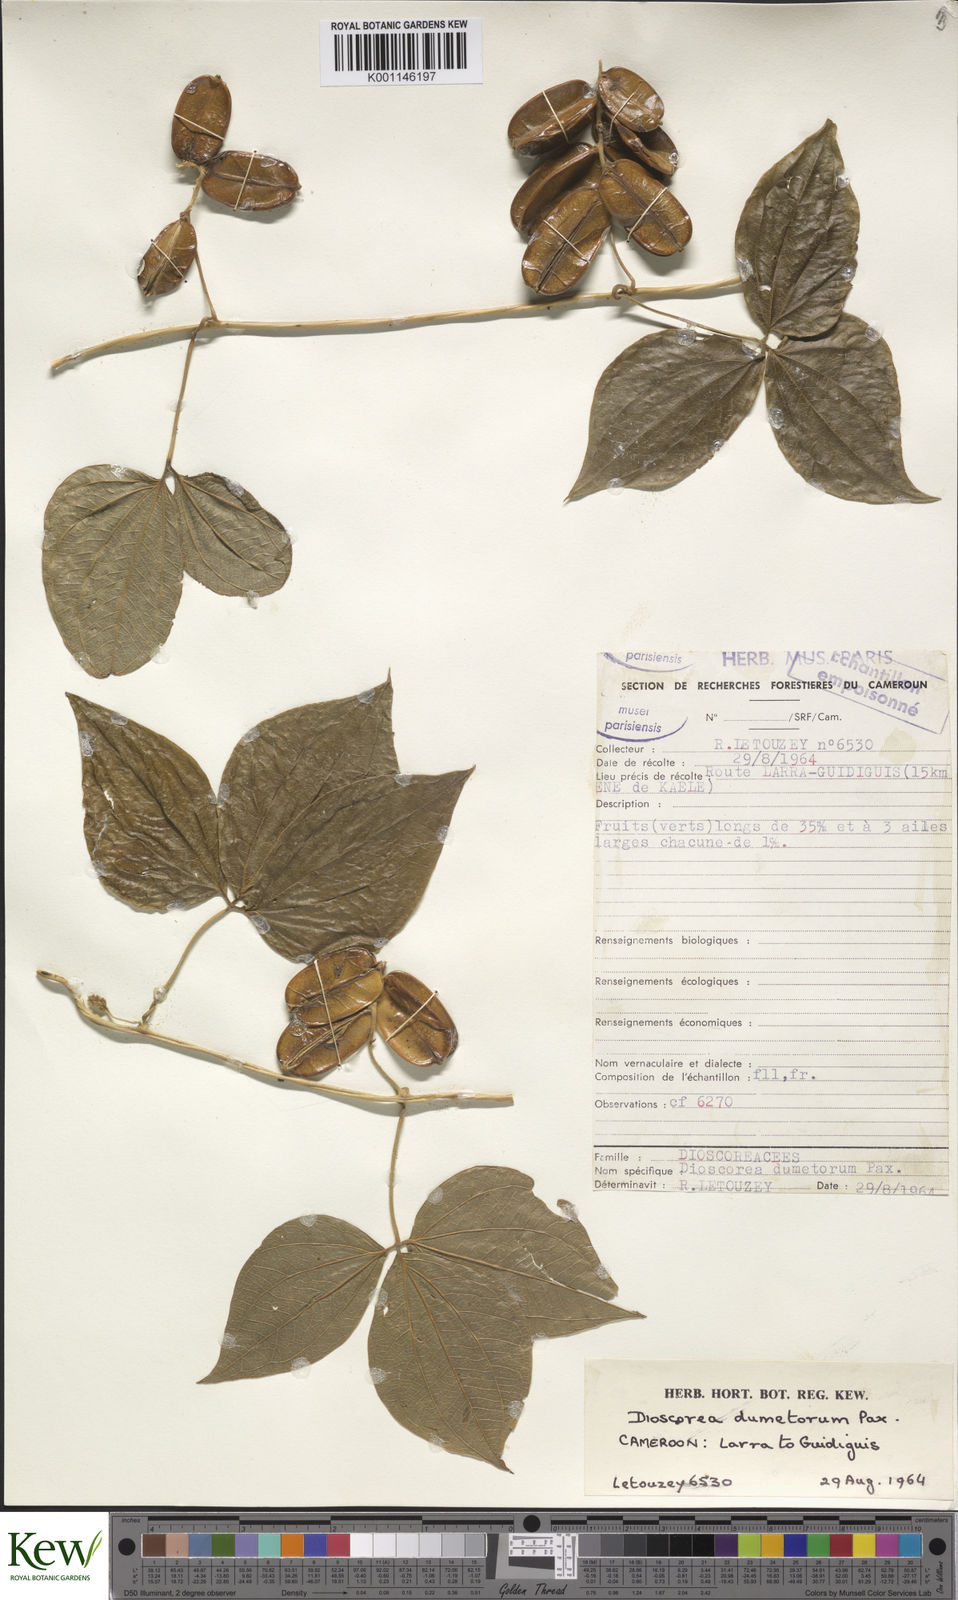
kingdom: Plantae
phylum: Tracheophyta
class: Liliopsida
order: Dioscoreales
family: Dioscoreaceae
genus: Dioscorea
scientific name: Dioscorea dumetorum
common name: African bitter yam
